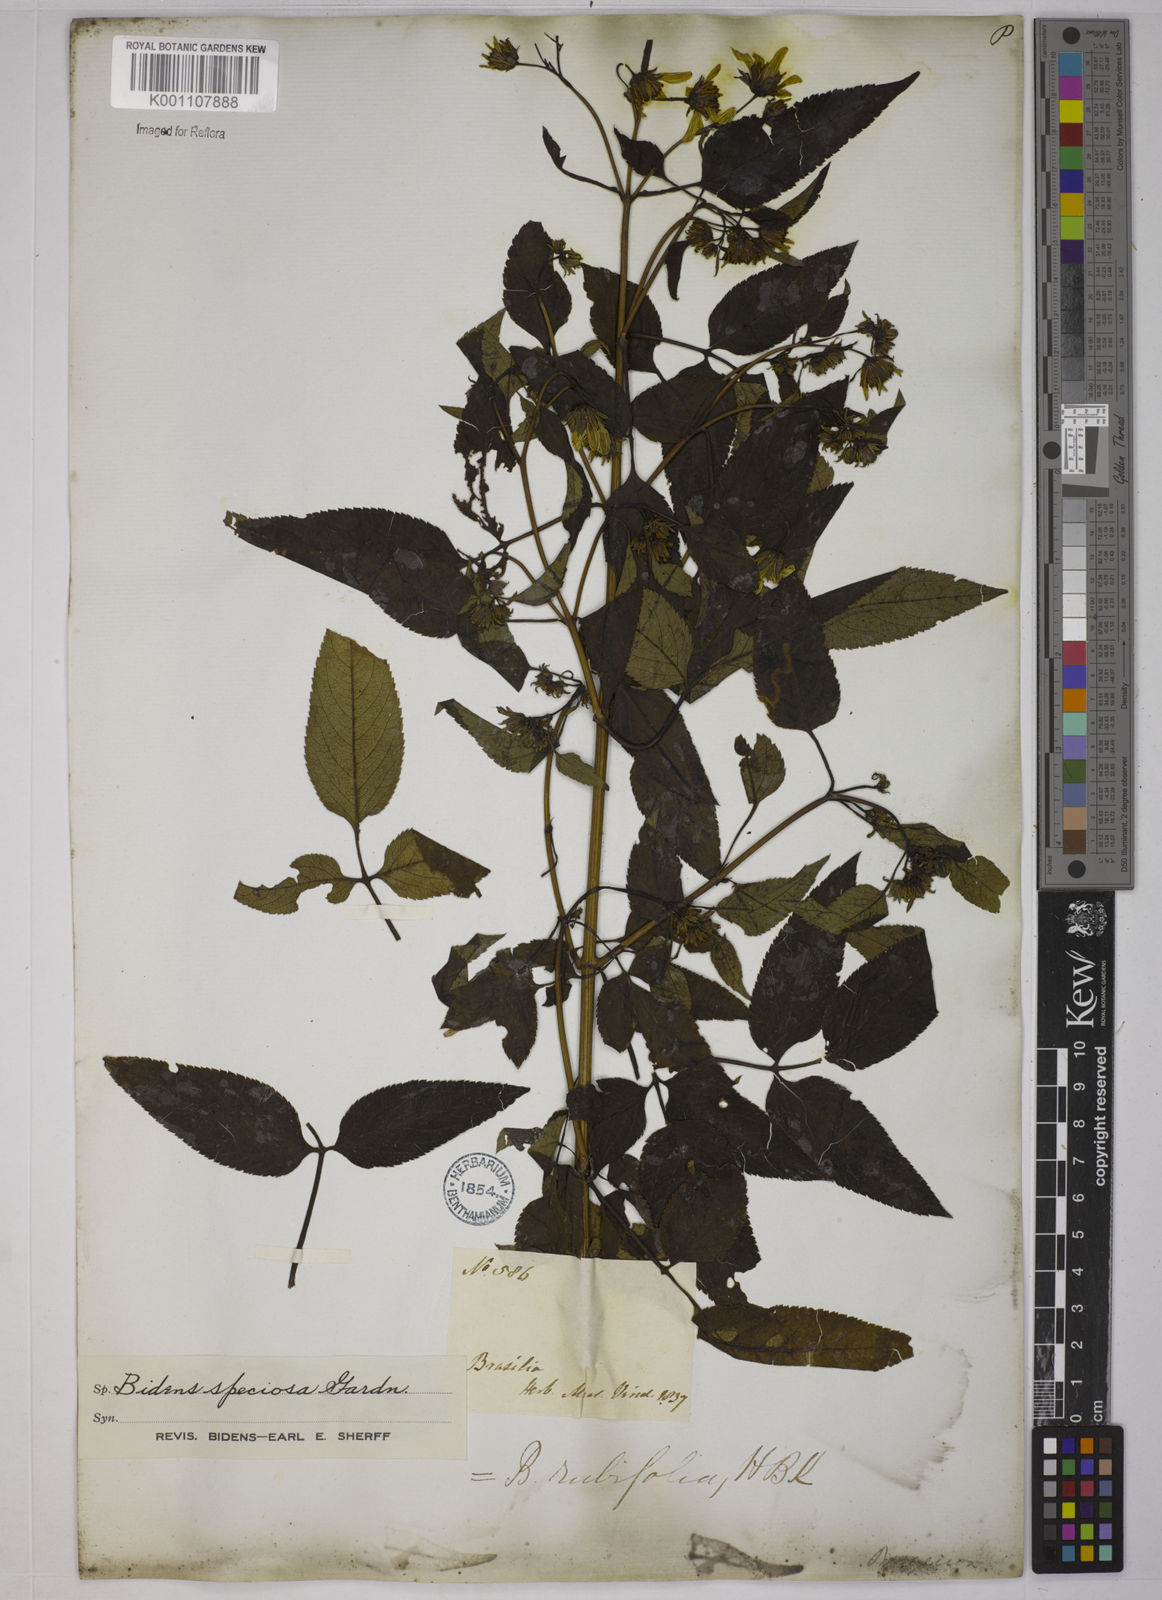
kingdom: Plantae
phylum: Tracheophyta
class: Magnoliopsida
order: Asterales
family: Asteraceae
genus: Bidens
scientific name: Bidens segetum
